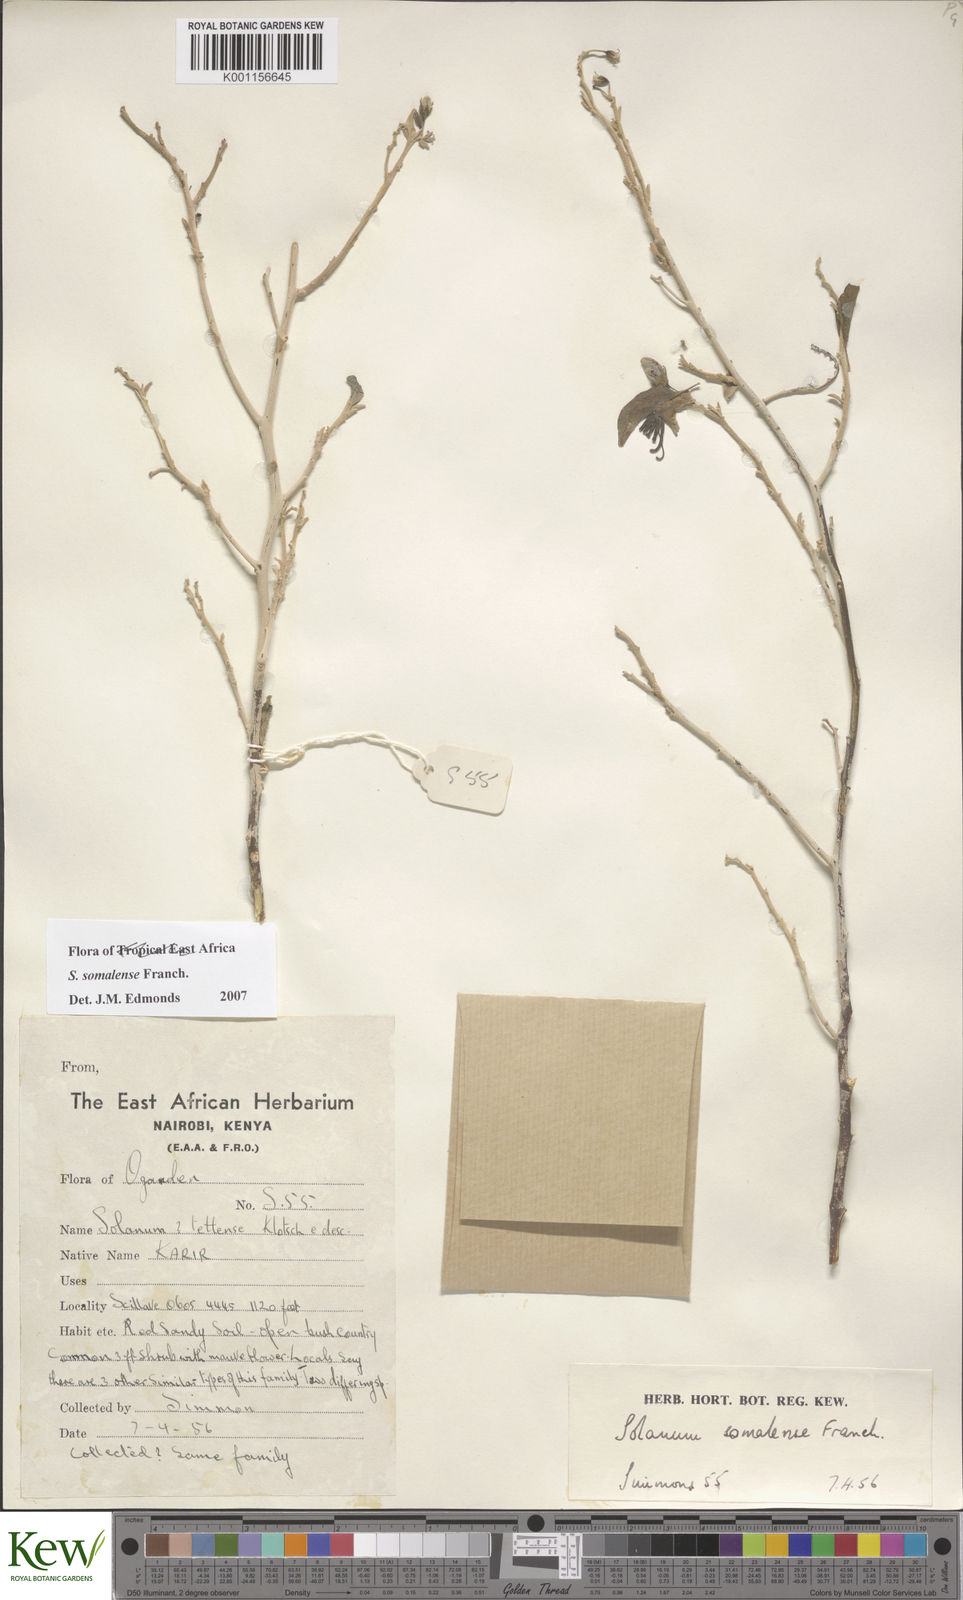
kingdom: Plantae
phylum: Tracheophyta
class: Magnoliopsida
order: Solanales
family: Solanaceae
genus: Solanum
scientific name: Solanum somalense
